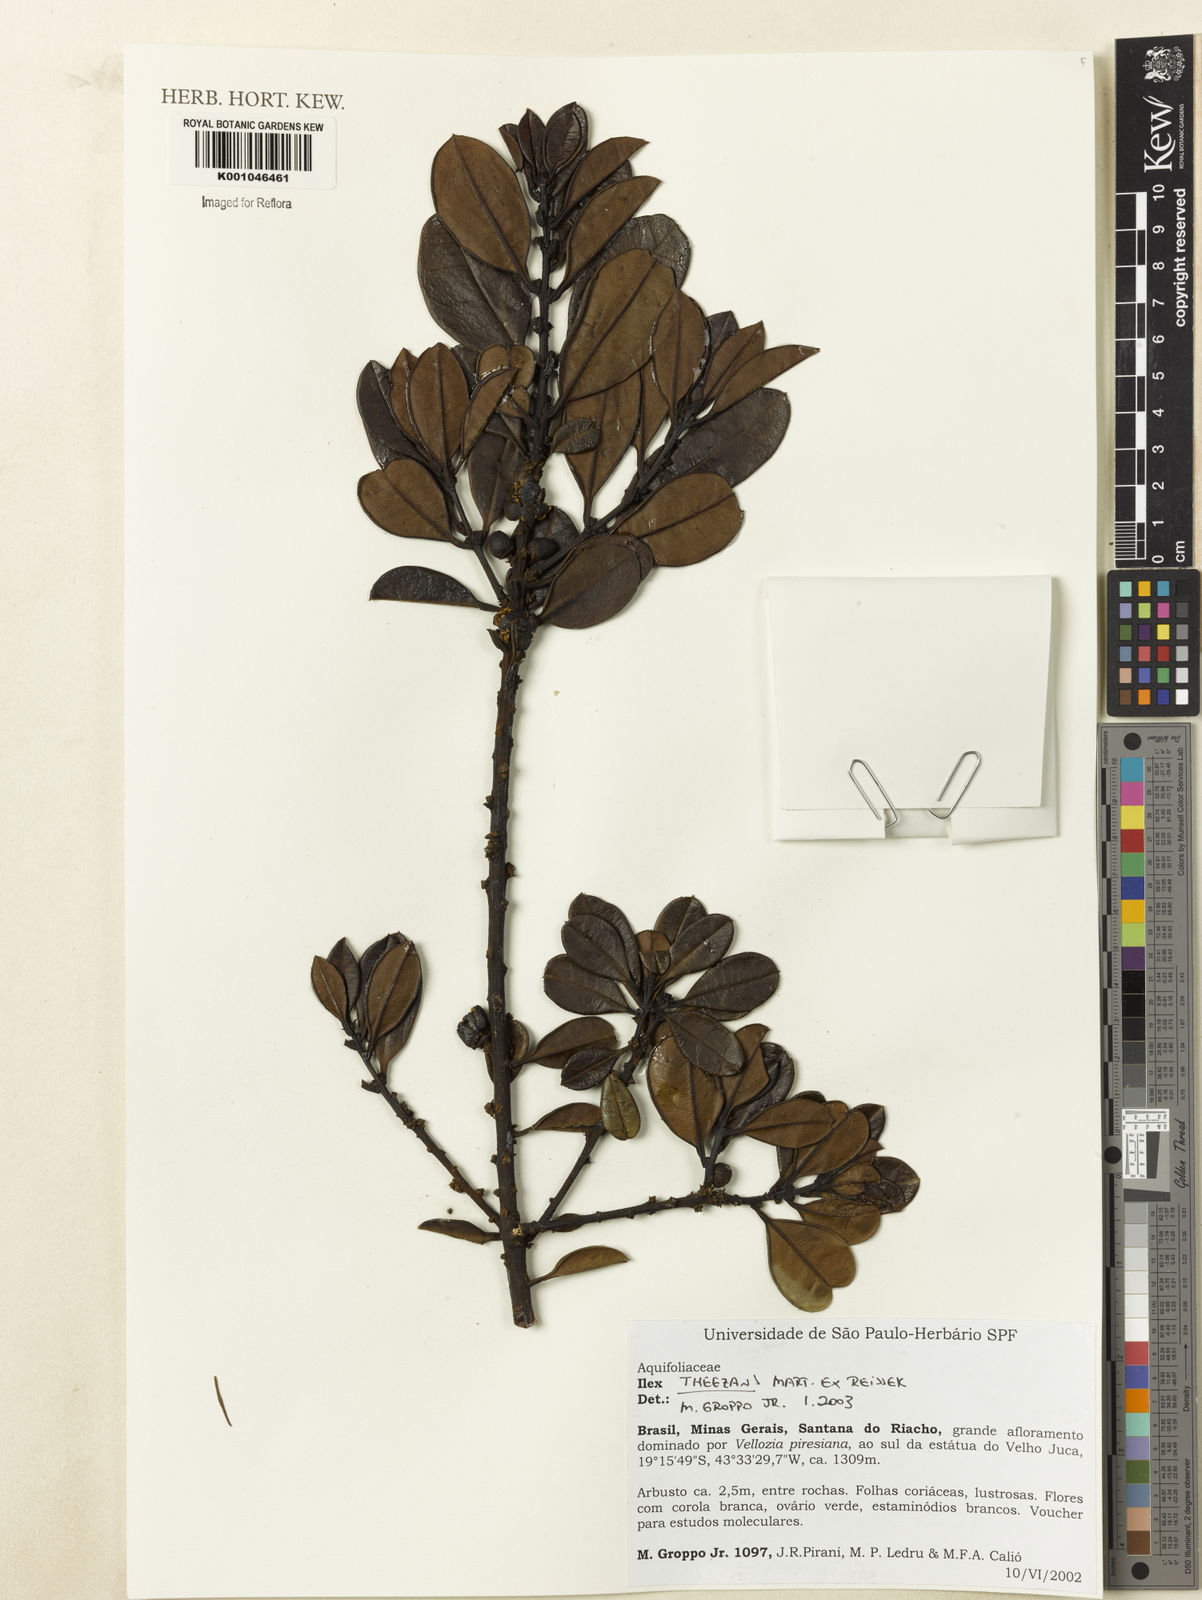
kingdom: Plantae
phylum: Tracheophyta
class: Magnoliopsida
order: Aquifoliales
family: Aquifoliaceae
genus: Ilex
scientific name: Ilex paraguariensis
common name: Paraguay tea
